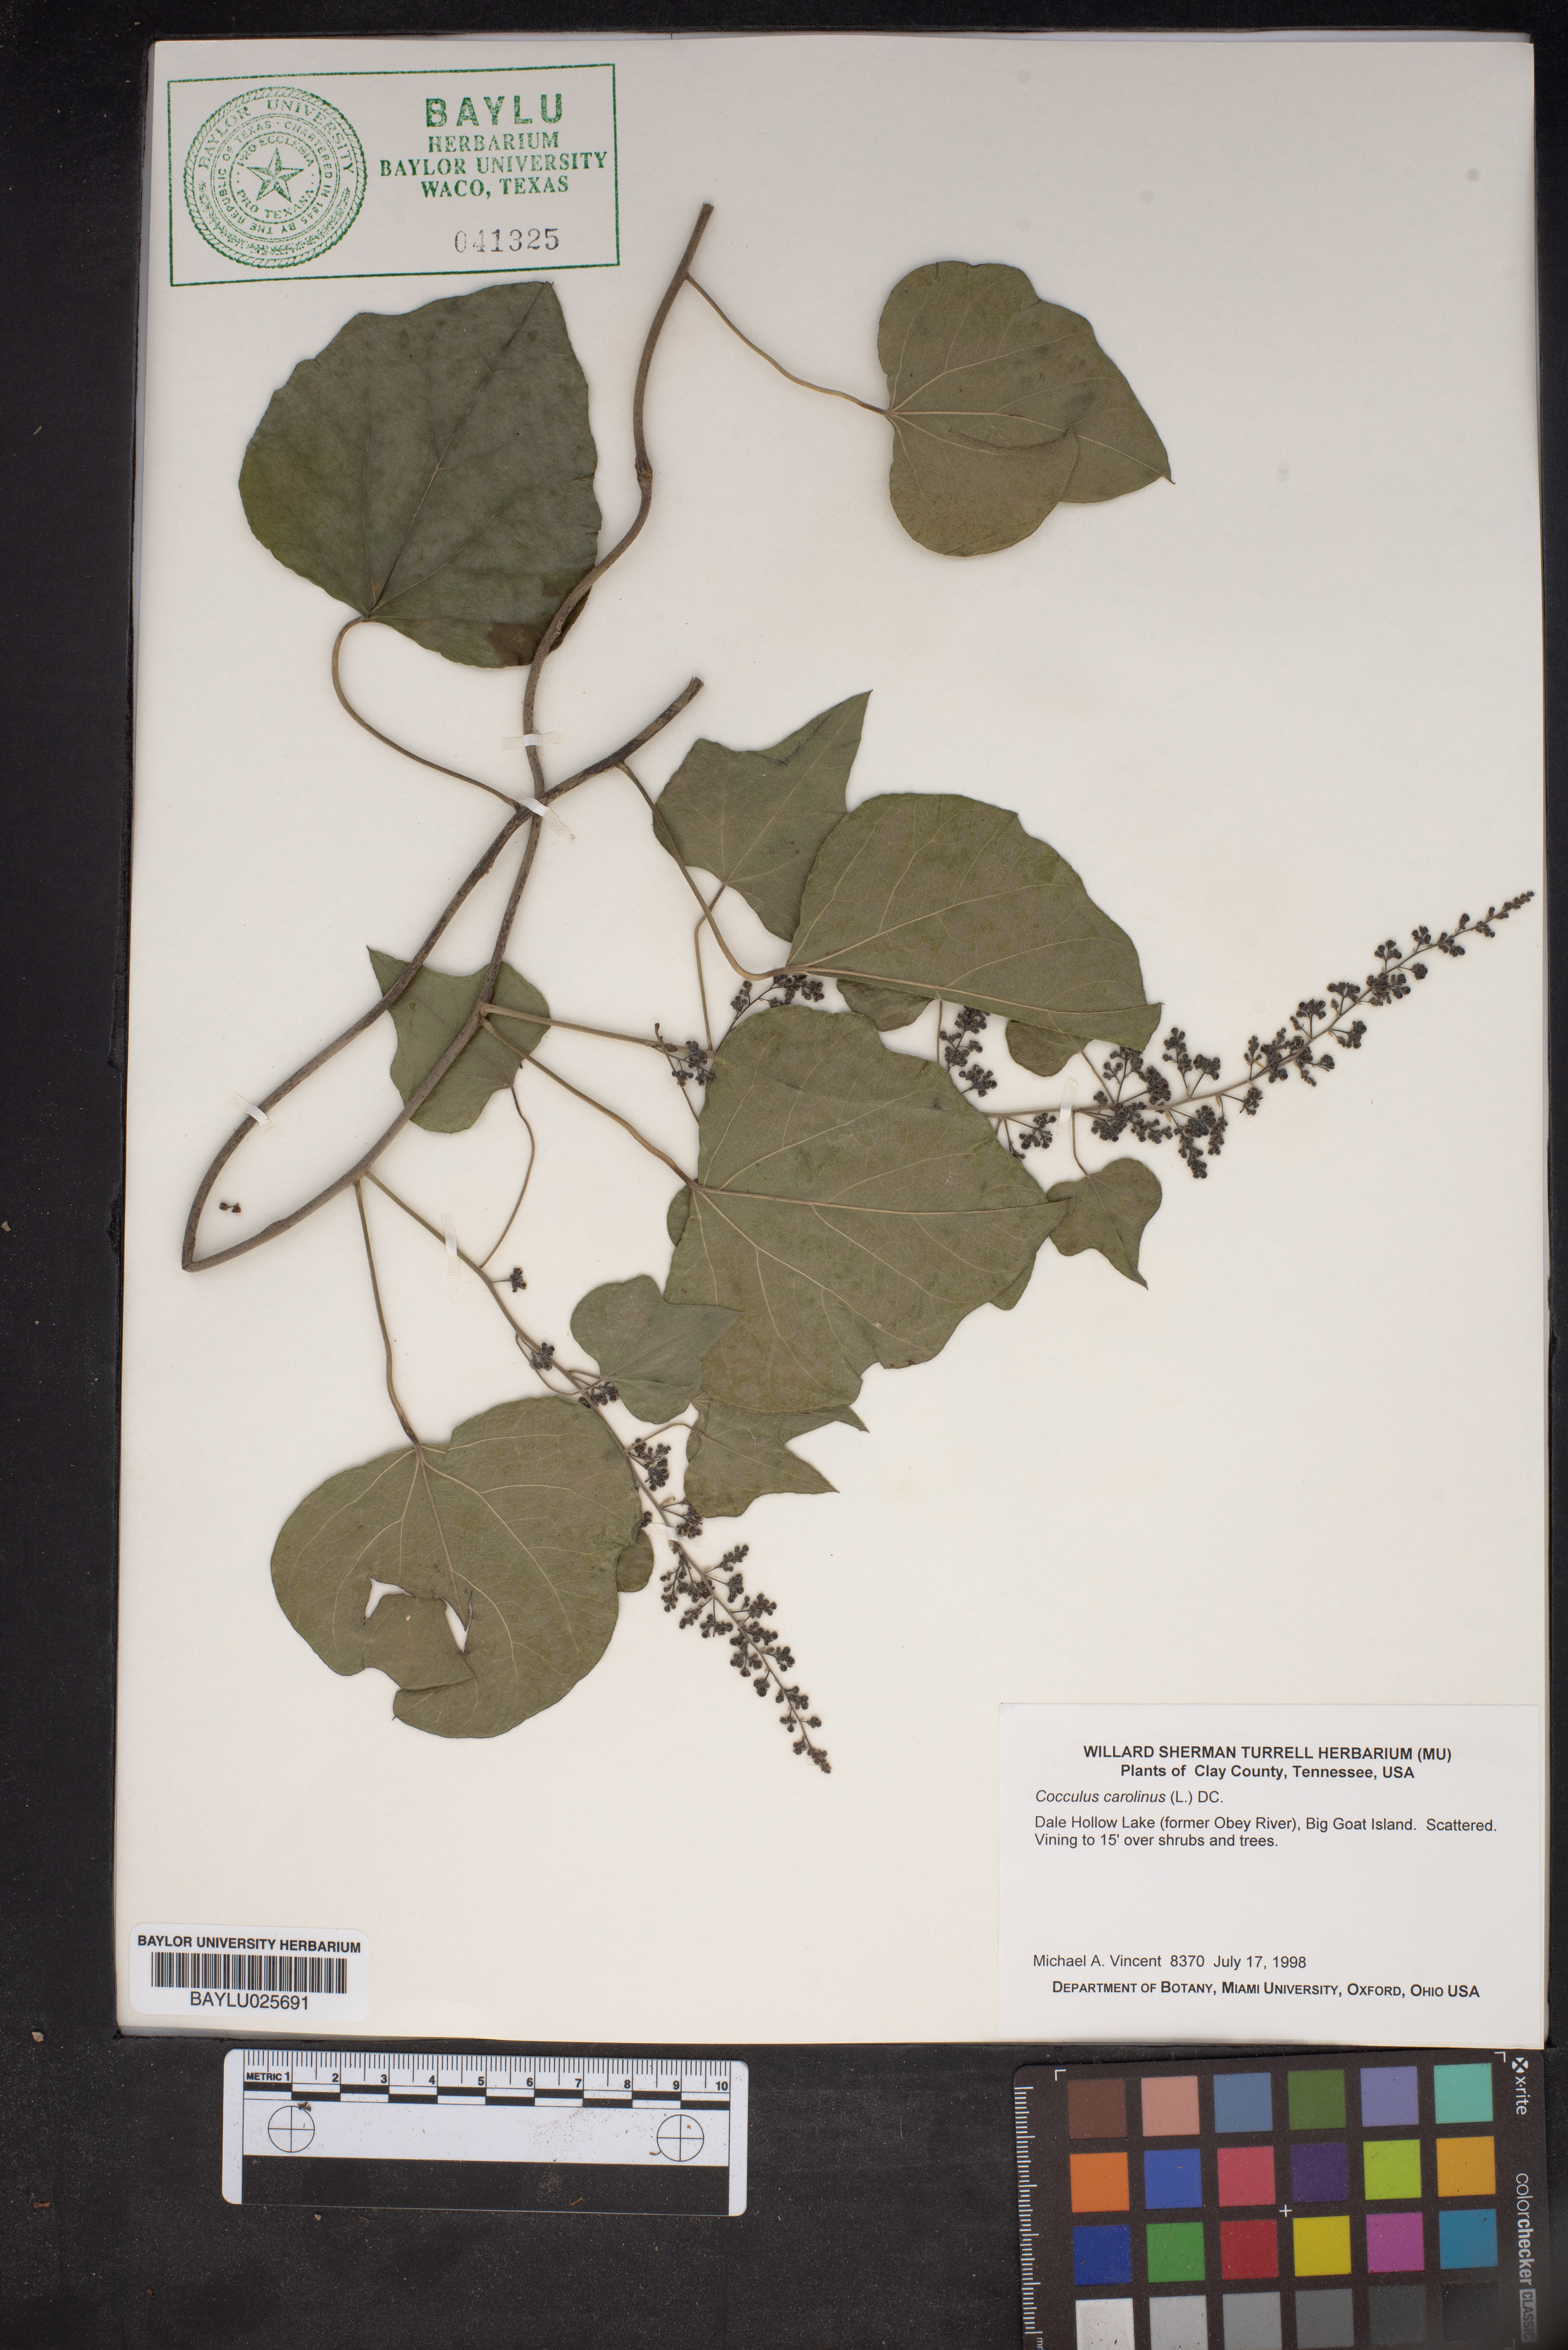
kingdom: Plantae
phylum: Tracheophyta
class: Magnoliopsida
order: Ranunculales
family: Menispermaceae
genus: Cocculus
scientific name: Cocculus carolinus
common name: Carolina moonseed
